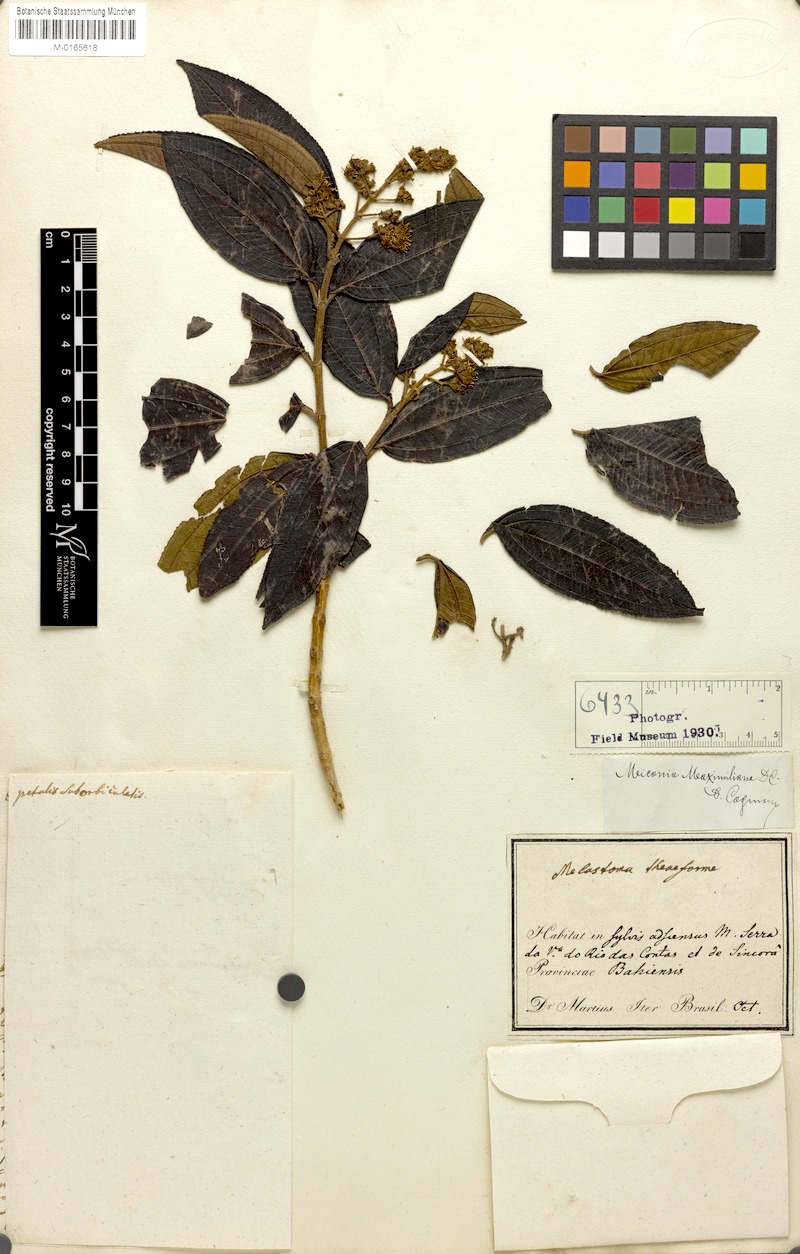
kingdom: Plantae
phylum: Tracheophyta
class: Magnoliopsida
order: Myrtales
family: Melastomataceae
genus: Miconia
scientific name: Miconia ibaguensis
